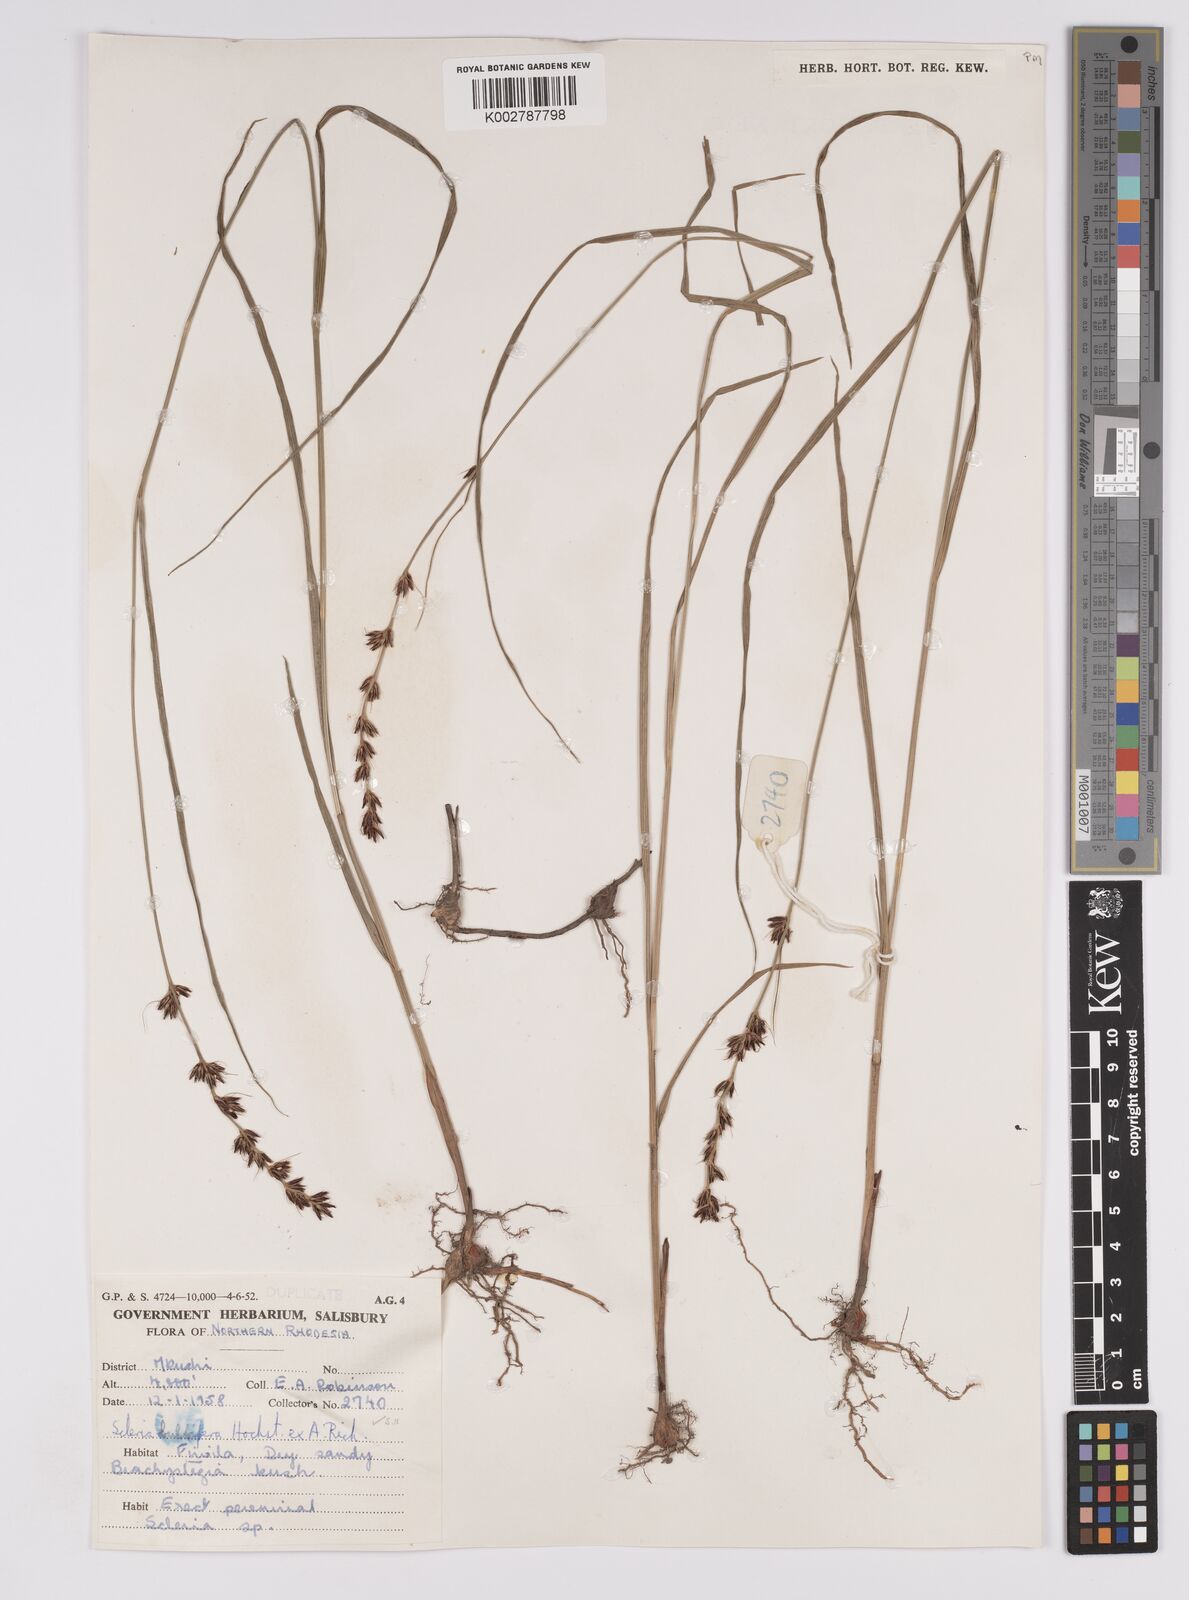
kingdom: Plantae
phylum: Tracheophyta
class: Liliopsida
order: Poales
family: Cyperaceae
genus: Scleria
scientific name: Scleria bulbifera
